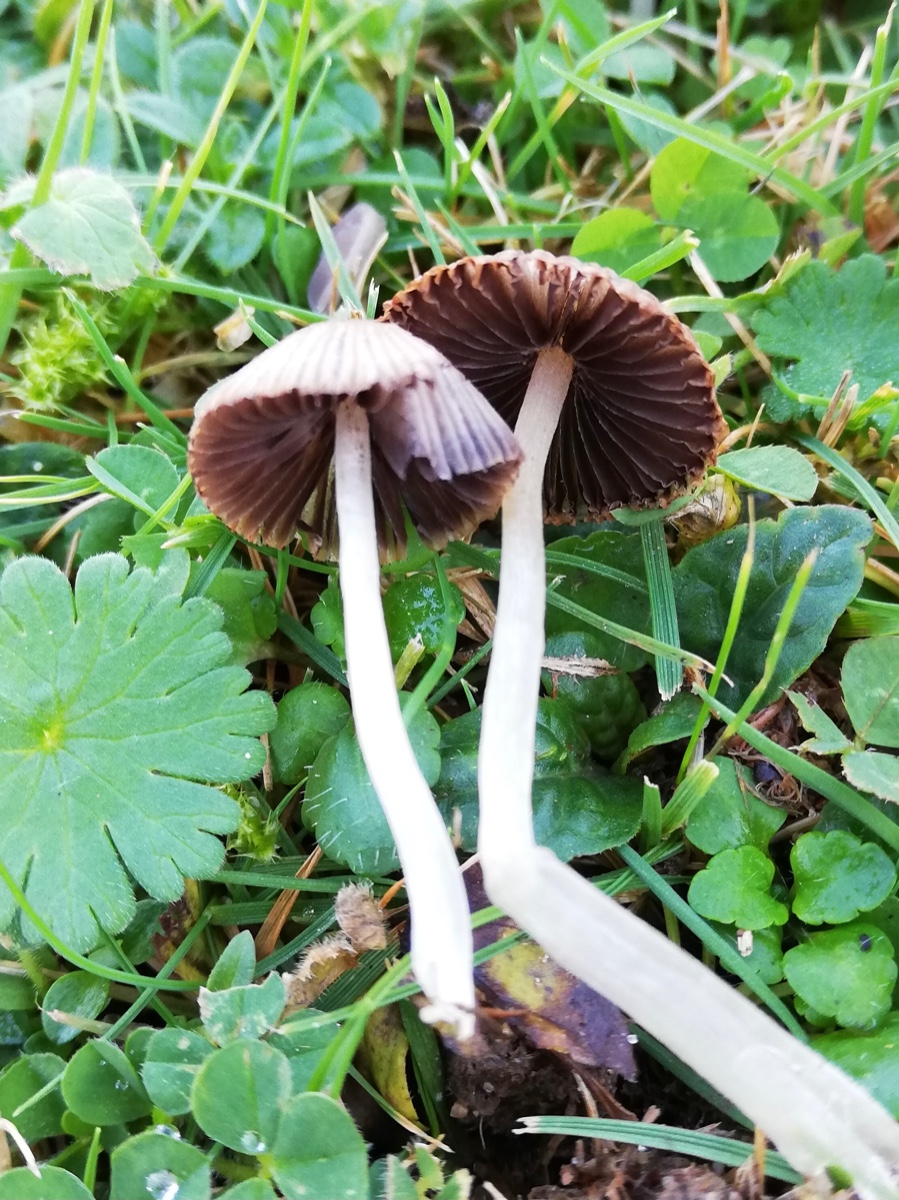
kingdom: Fungi
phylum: Basidiomycota
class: Agaricomycetes
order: Agaricales
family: Psathyrellaceae
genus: Coprinellus
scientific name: Coprinellus disseminatus
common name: bredsået blækhat
